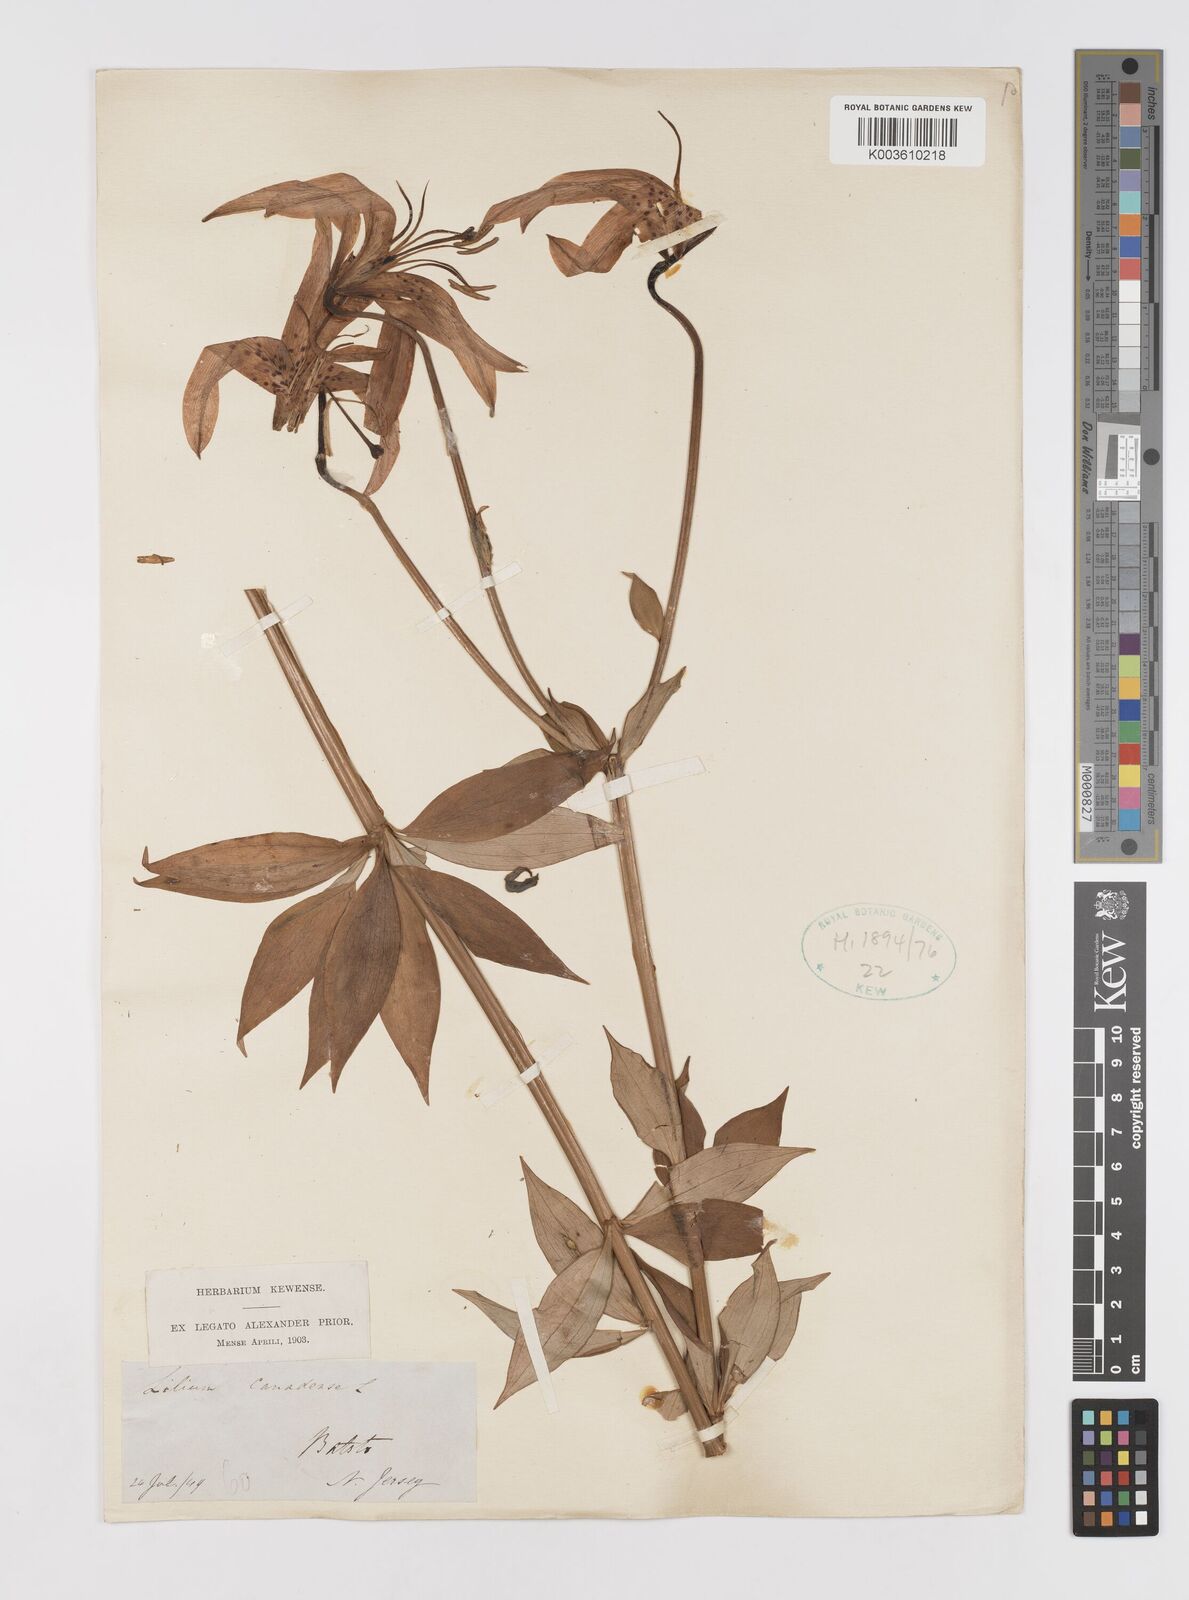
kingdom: Plantae
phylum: Tracheophyta
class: Liliopsida
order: Liliales
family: Liliaceae
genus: Lilium
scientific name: Lilium canadense
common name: Canada lily
